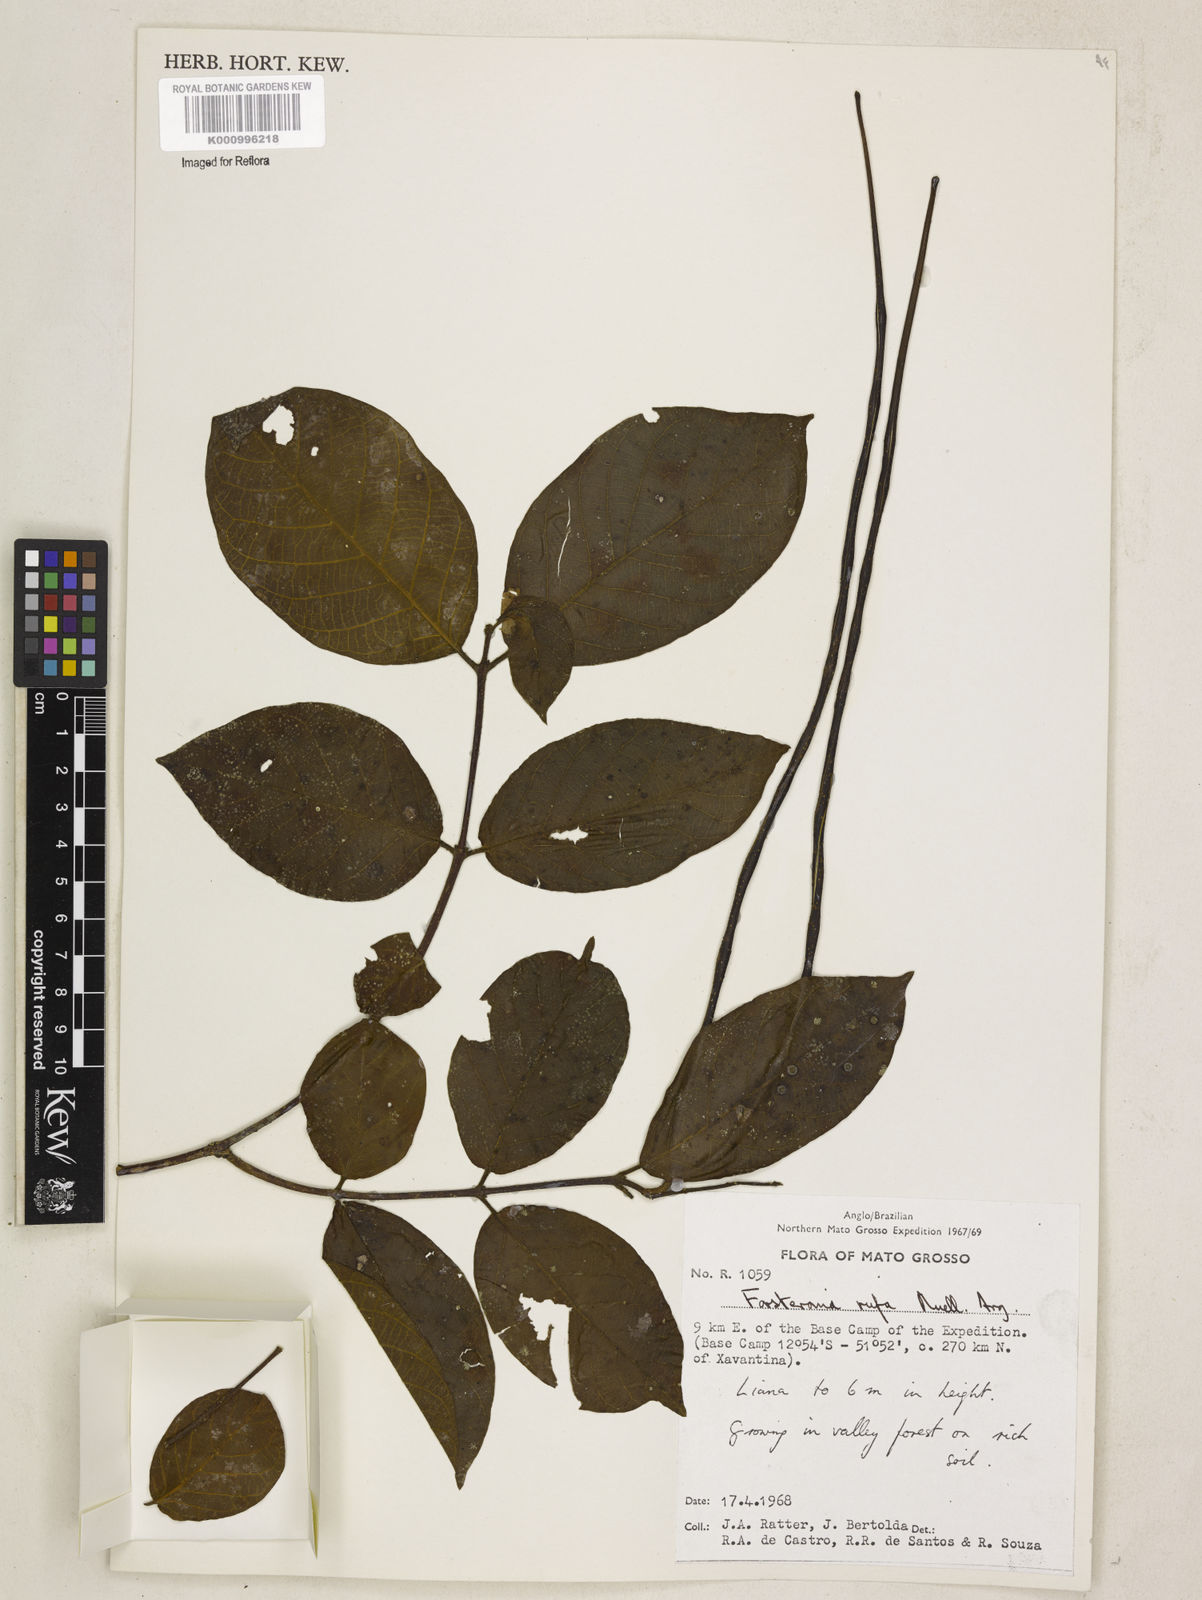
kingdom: Plantae
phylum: Tracheophyta
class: Magnoliopsida
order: Gentianales
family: Apocynaceae
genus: Forsteronia
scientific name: Forsteronia
